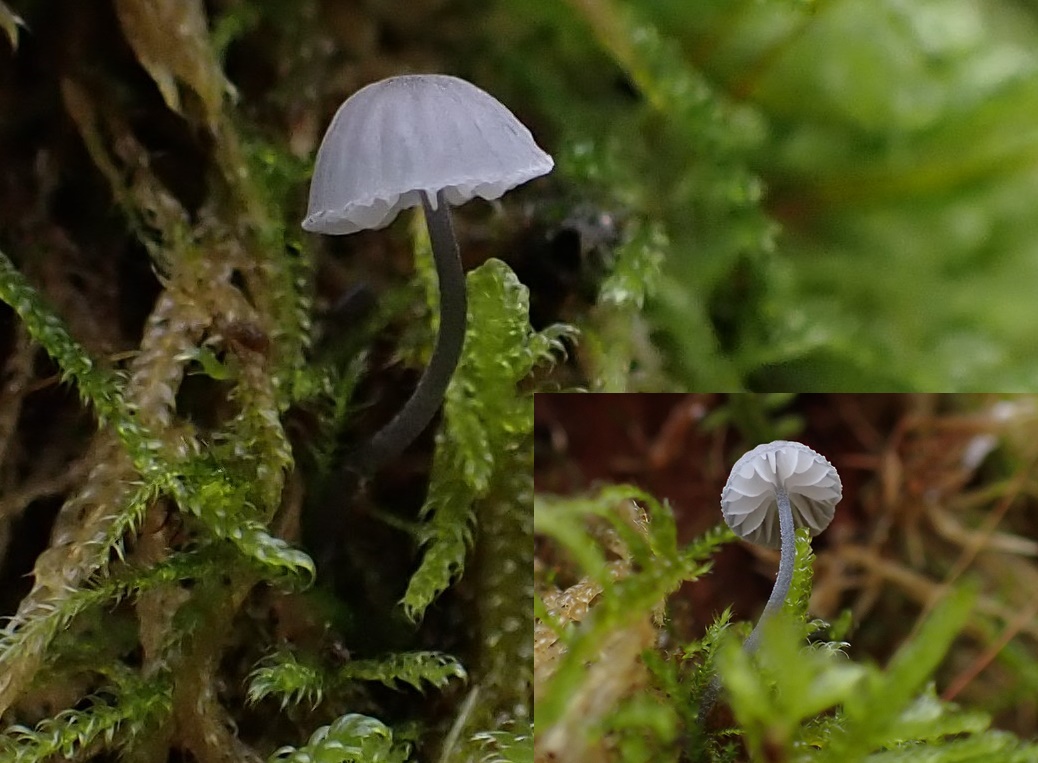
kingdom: Fungi
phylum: Basidiomycota
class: Agaricomycetes
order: Agaricales
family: Mycenaceae
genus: Mycena
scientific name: Mycena pseudocorticola
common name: gråblå bark-huesvamp
